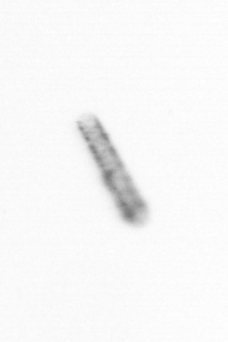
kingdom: Chromista
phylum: Ochrophyta
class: Bacillariophyceae
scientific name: Bacillariophyceae
